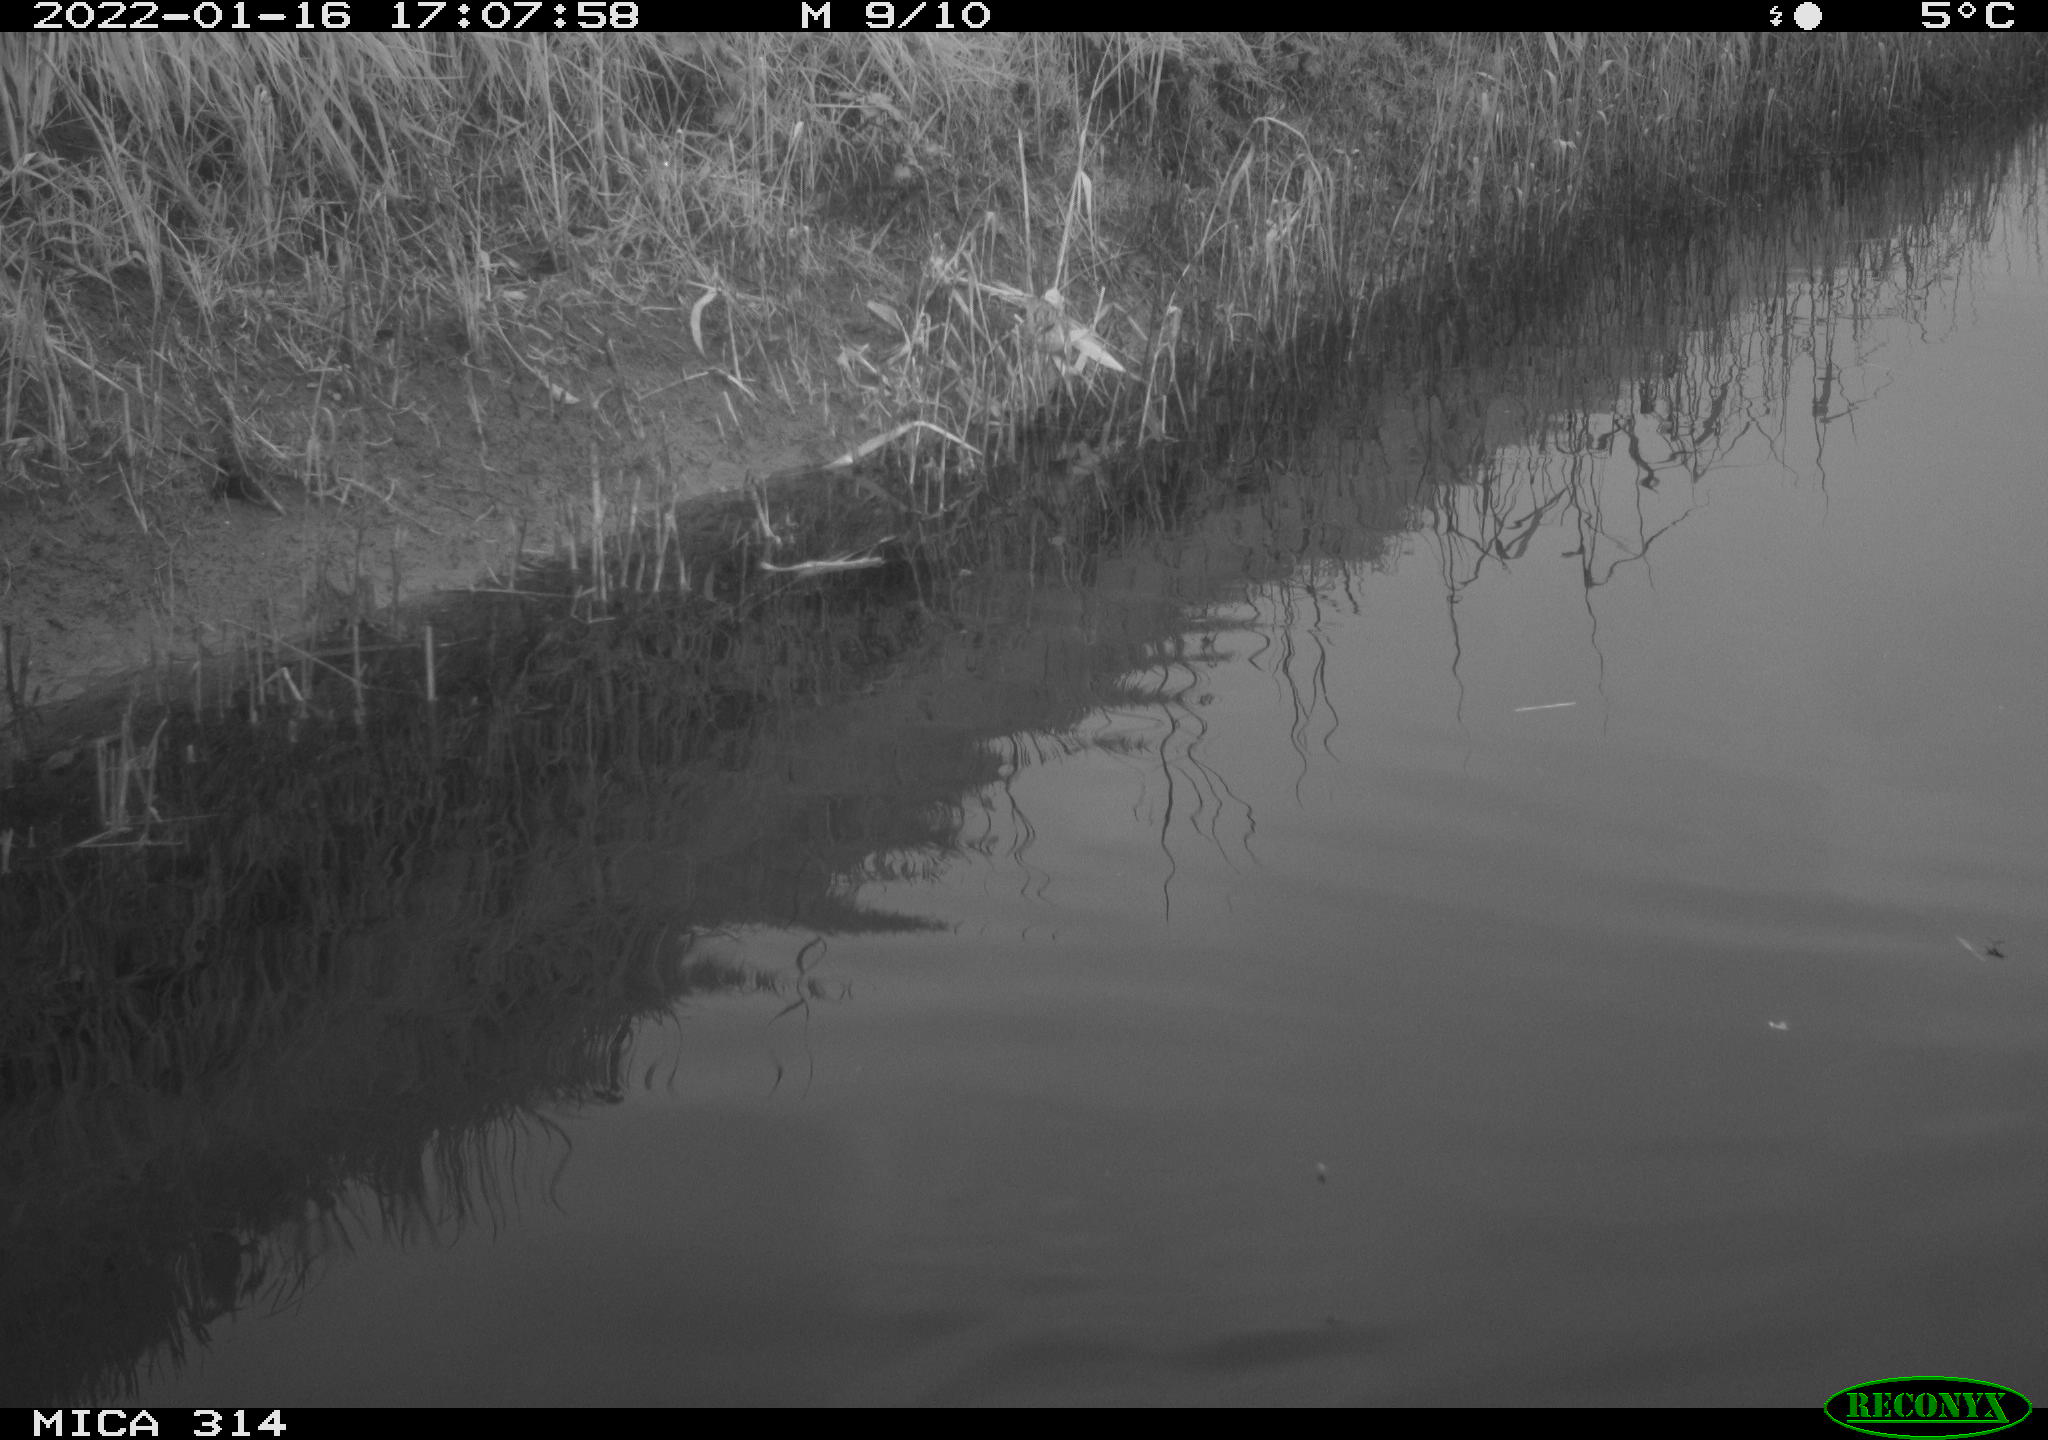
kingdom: Animalia
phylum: Chordata
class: Aves
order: Gruiformes
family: Rallidae
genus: Gallinula
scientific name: Gallinula chloropus
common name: Common moorhen
